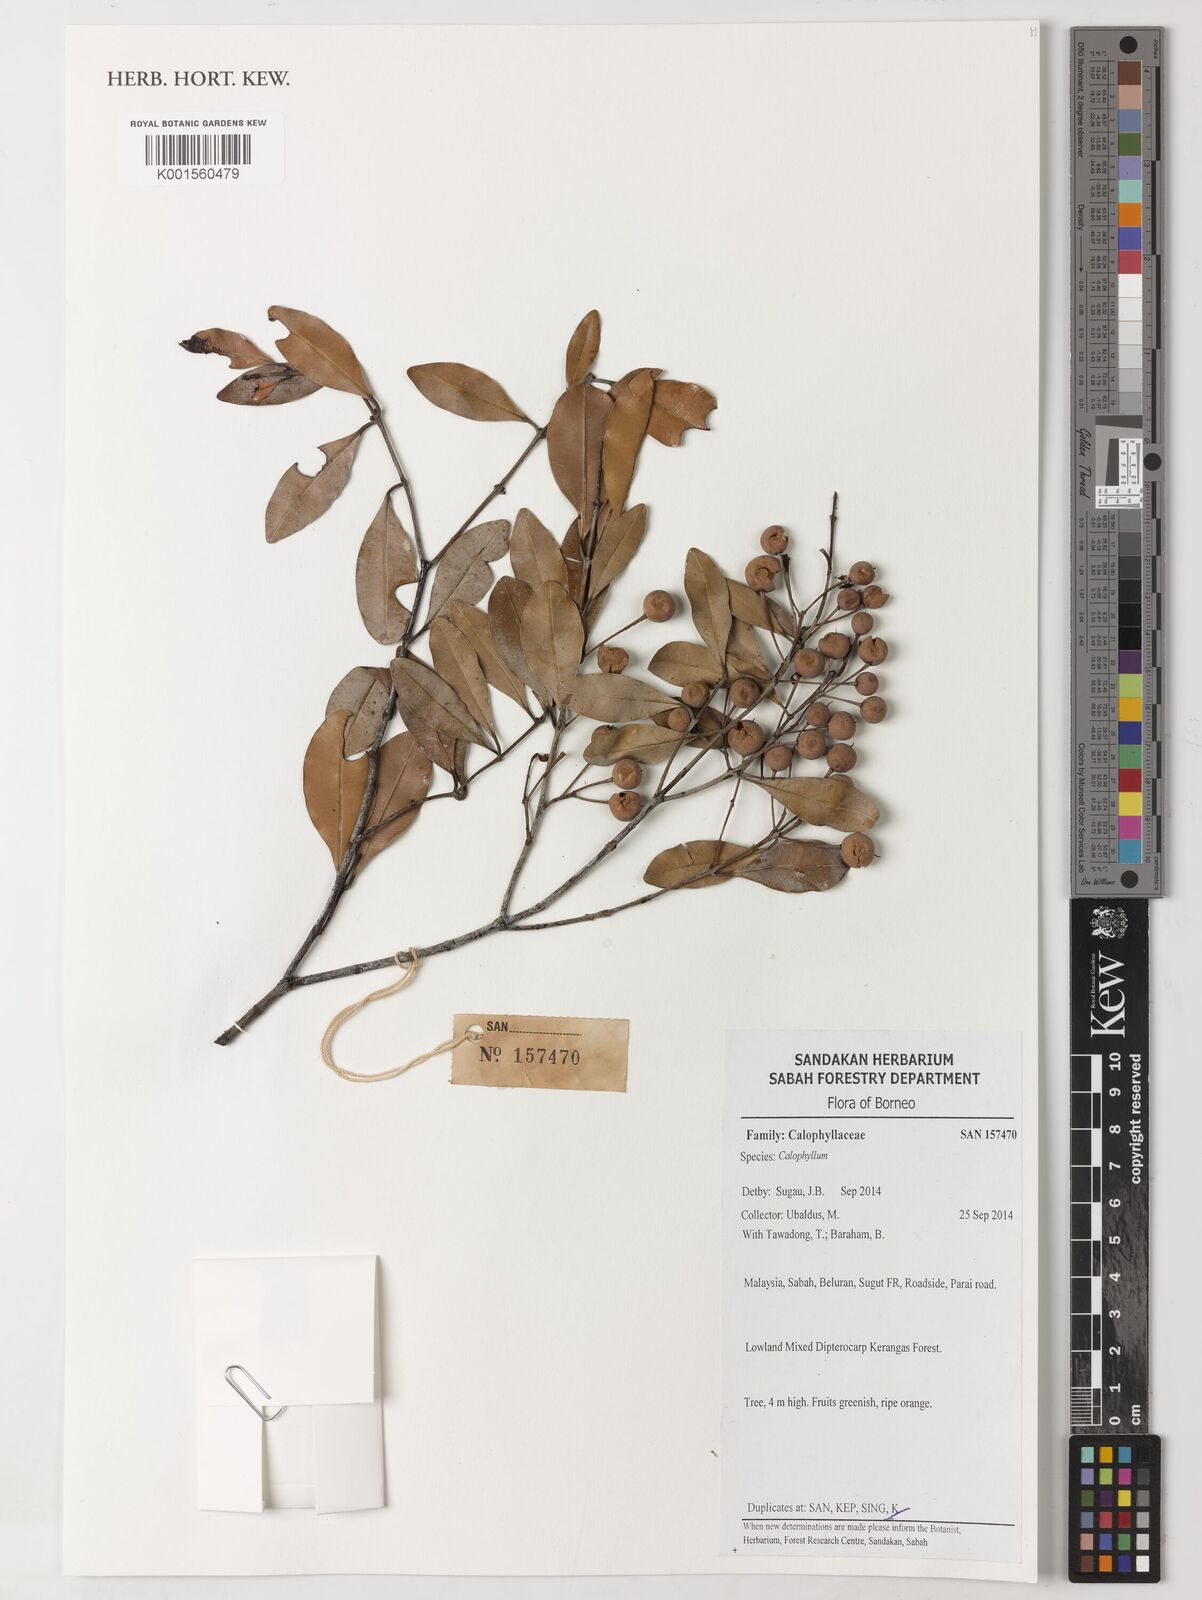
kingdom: Plantae
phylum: Tracheophyta
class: Magnoliopsida
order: Malpighiales
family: Calophyllaceae
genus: Calophyllum
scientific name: Calophyllum
